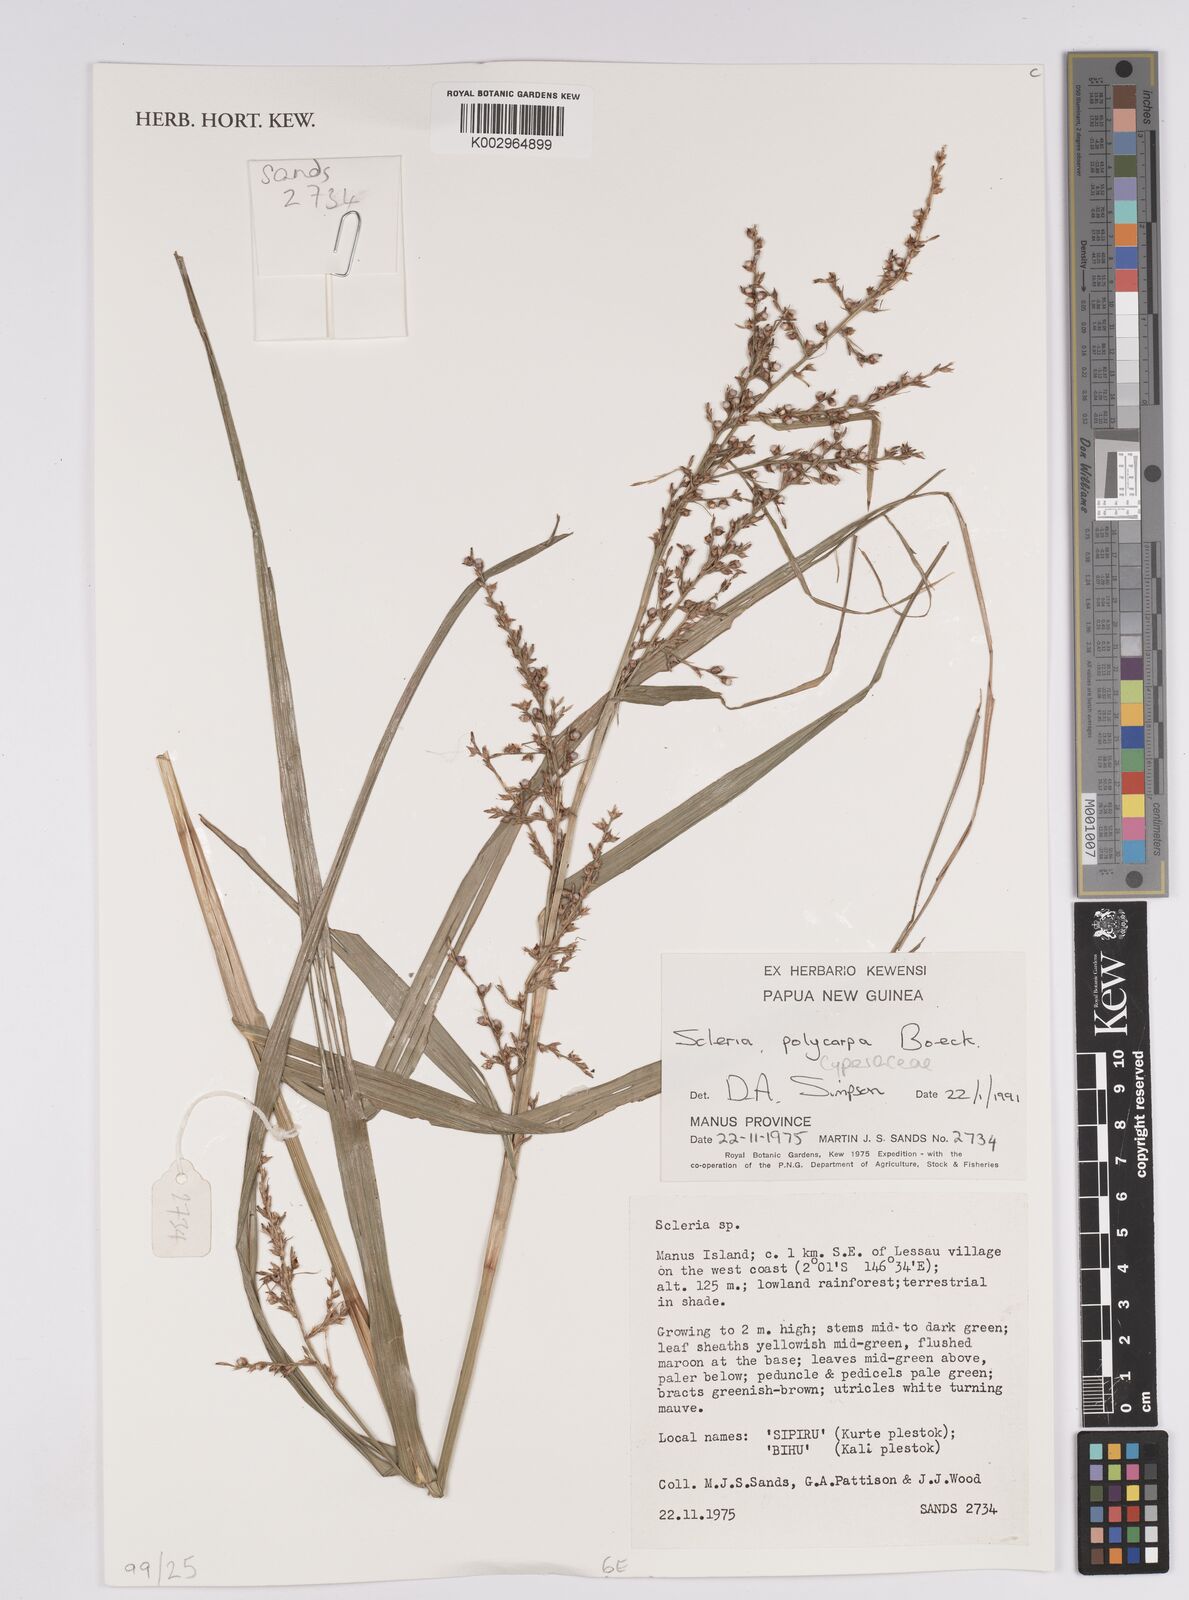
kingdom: Plantae
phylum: Tracheophyta
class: Liliopsida
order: Poales
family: Cyperaceae
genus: Scleria
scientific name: Scleria polycarpa
